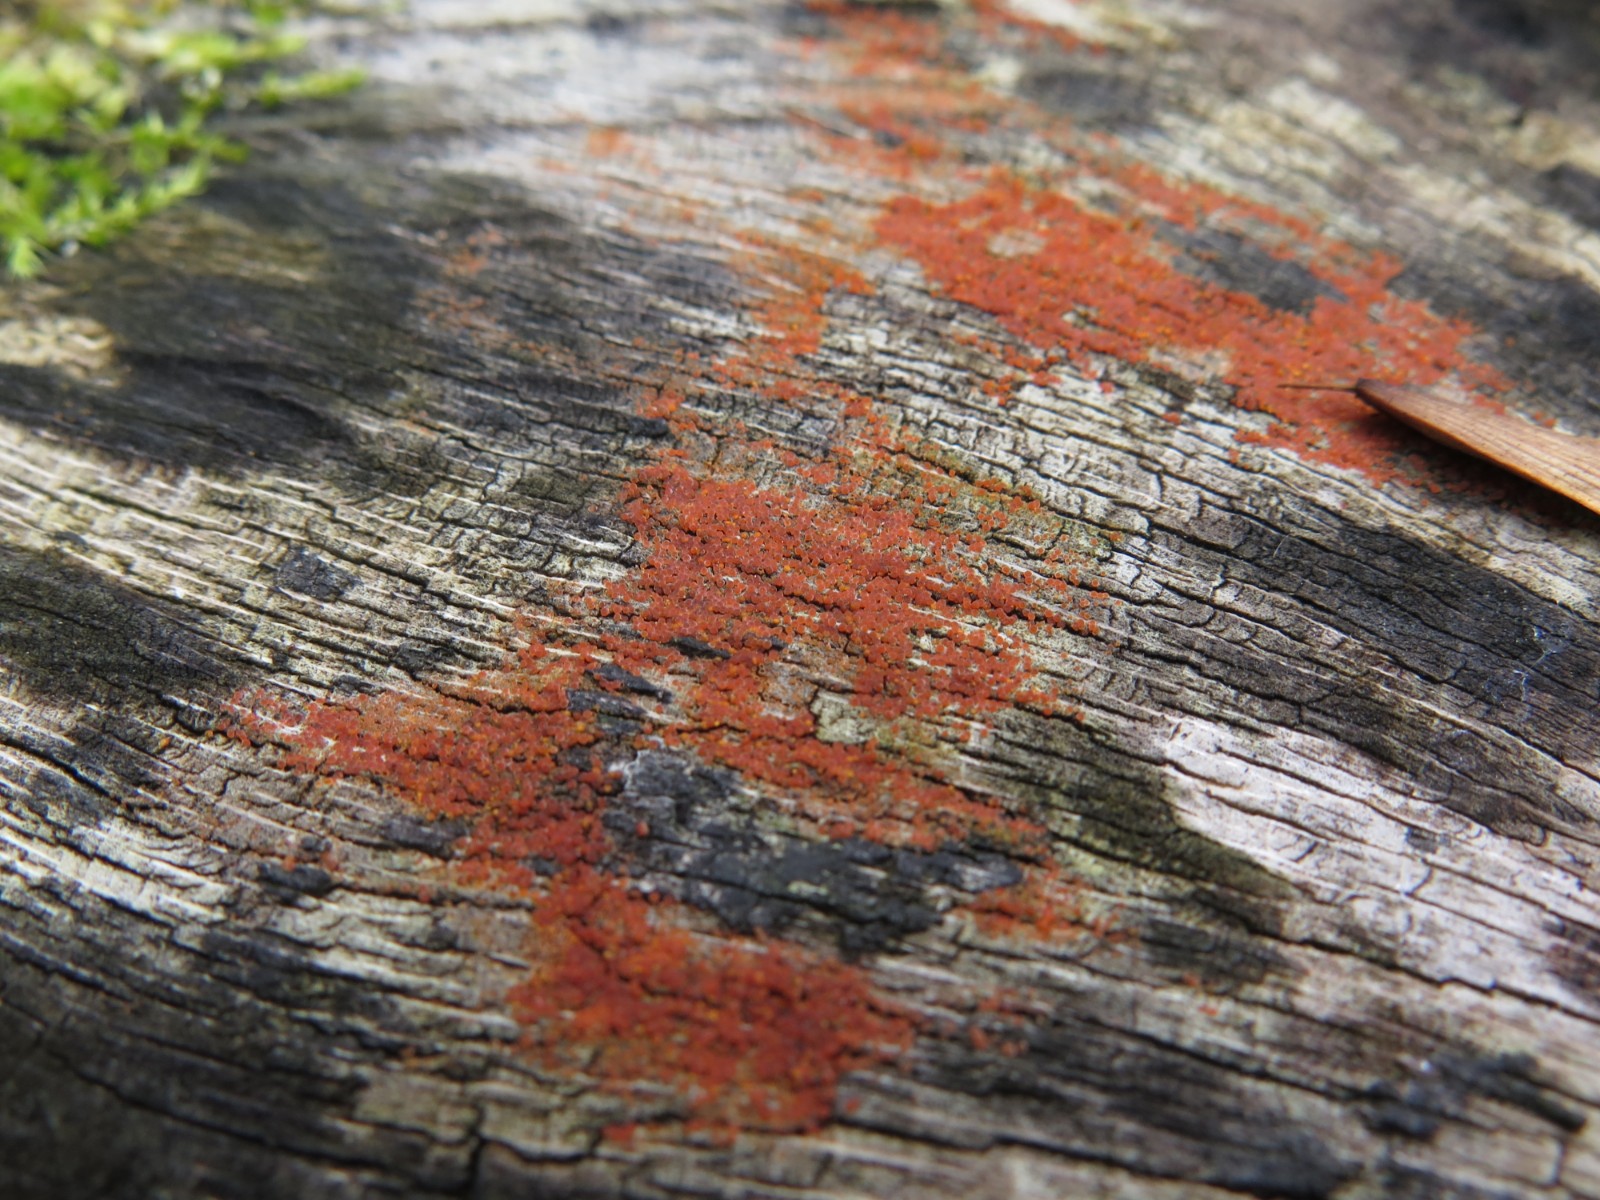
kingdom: Fungi
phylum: Ascomycota
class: Sordariomycetes
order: Hypocreales
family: Nectriaceae
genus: Hydropisphaera
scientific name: Hydropisphaera peziza
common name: skålformet gyldenkerne
